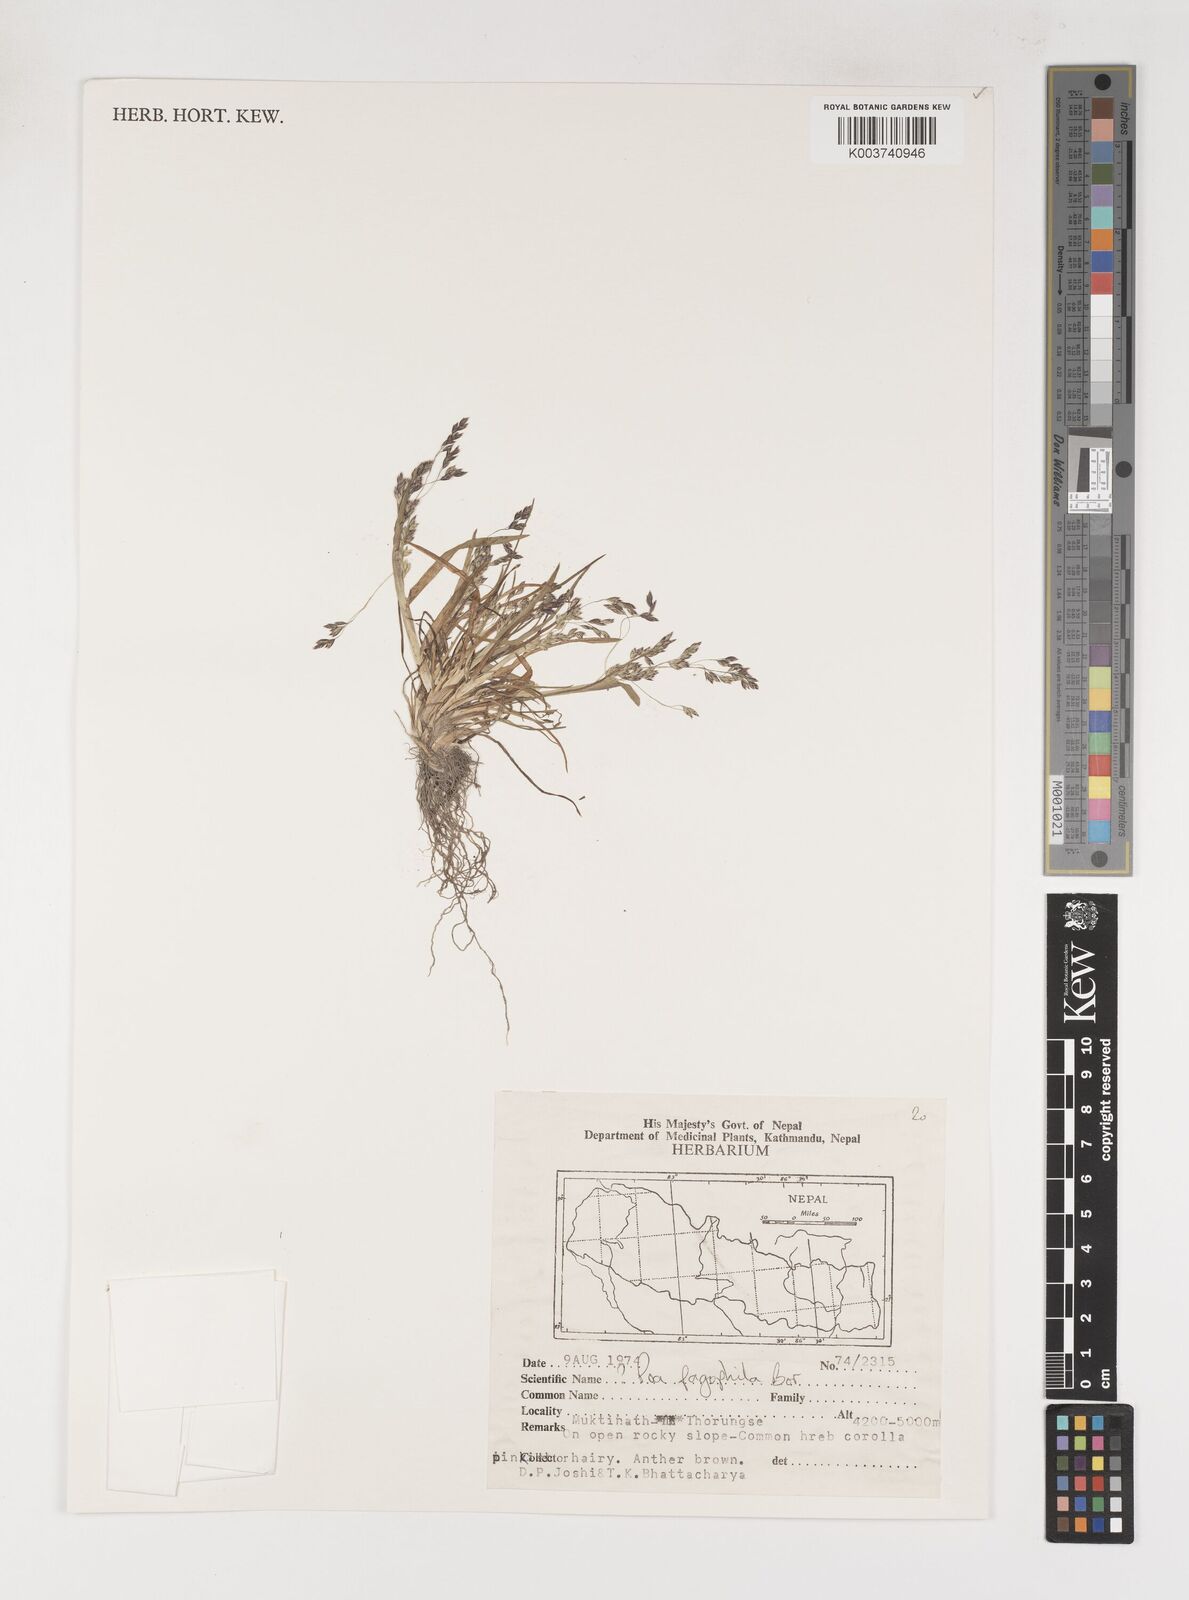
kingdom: Plantae
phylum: Tracheophyta
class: Liliopsida
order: Poales
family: Poaceae
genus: Poa
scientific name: Poa pagophila
